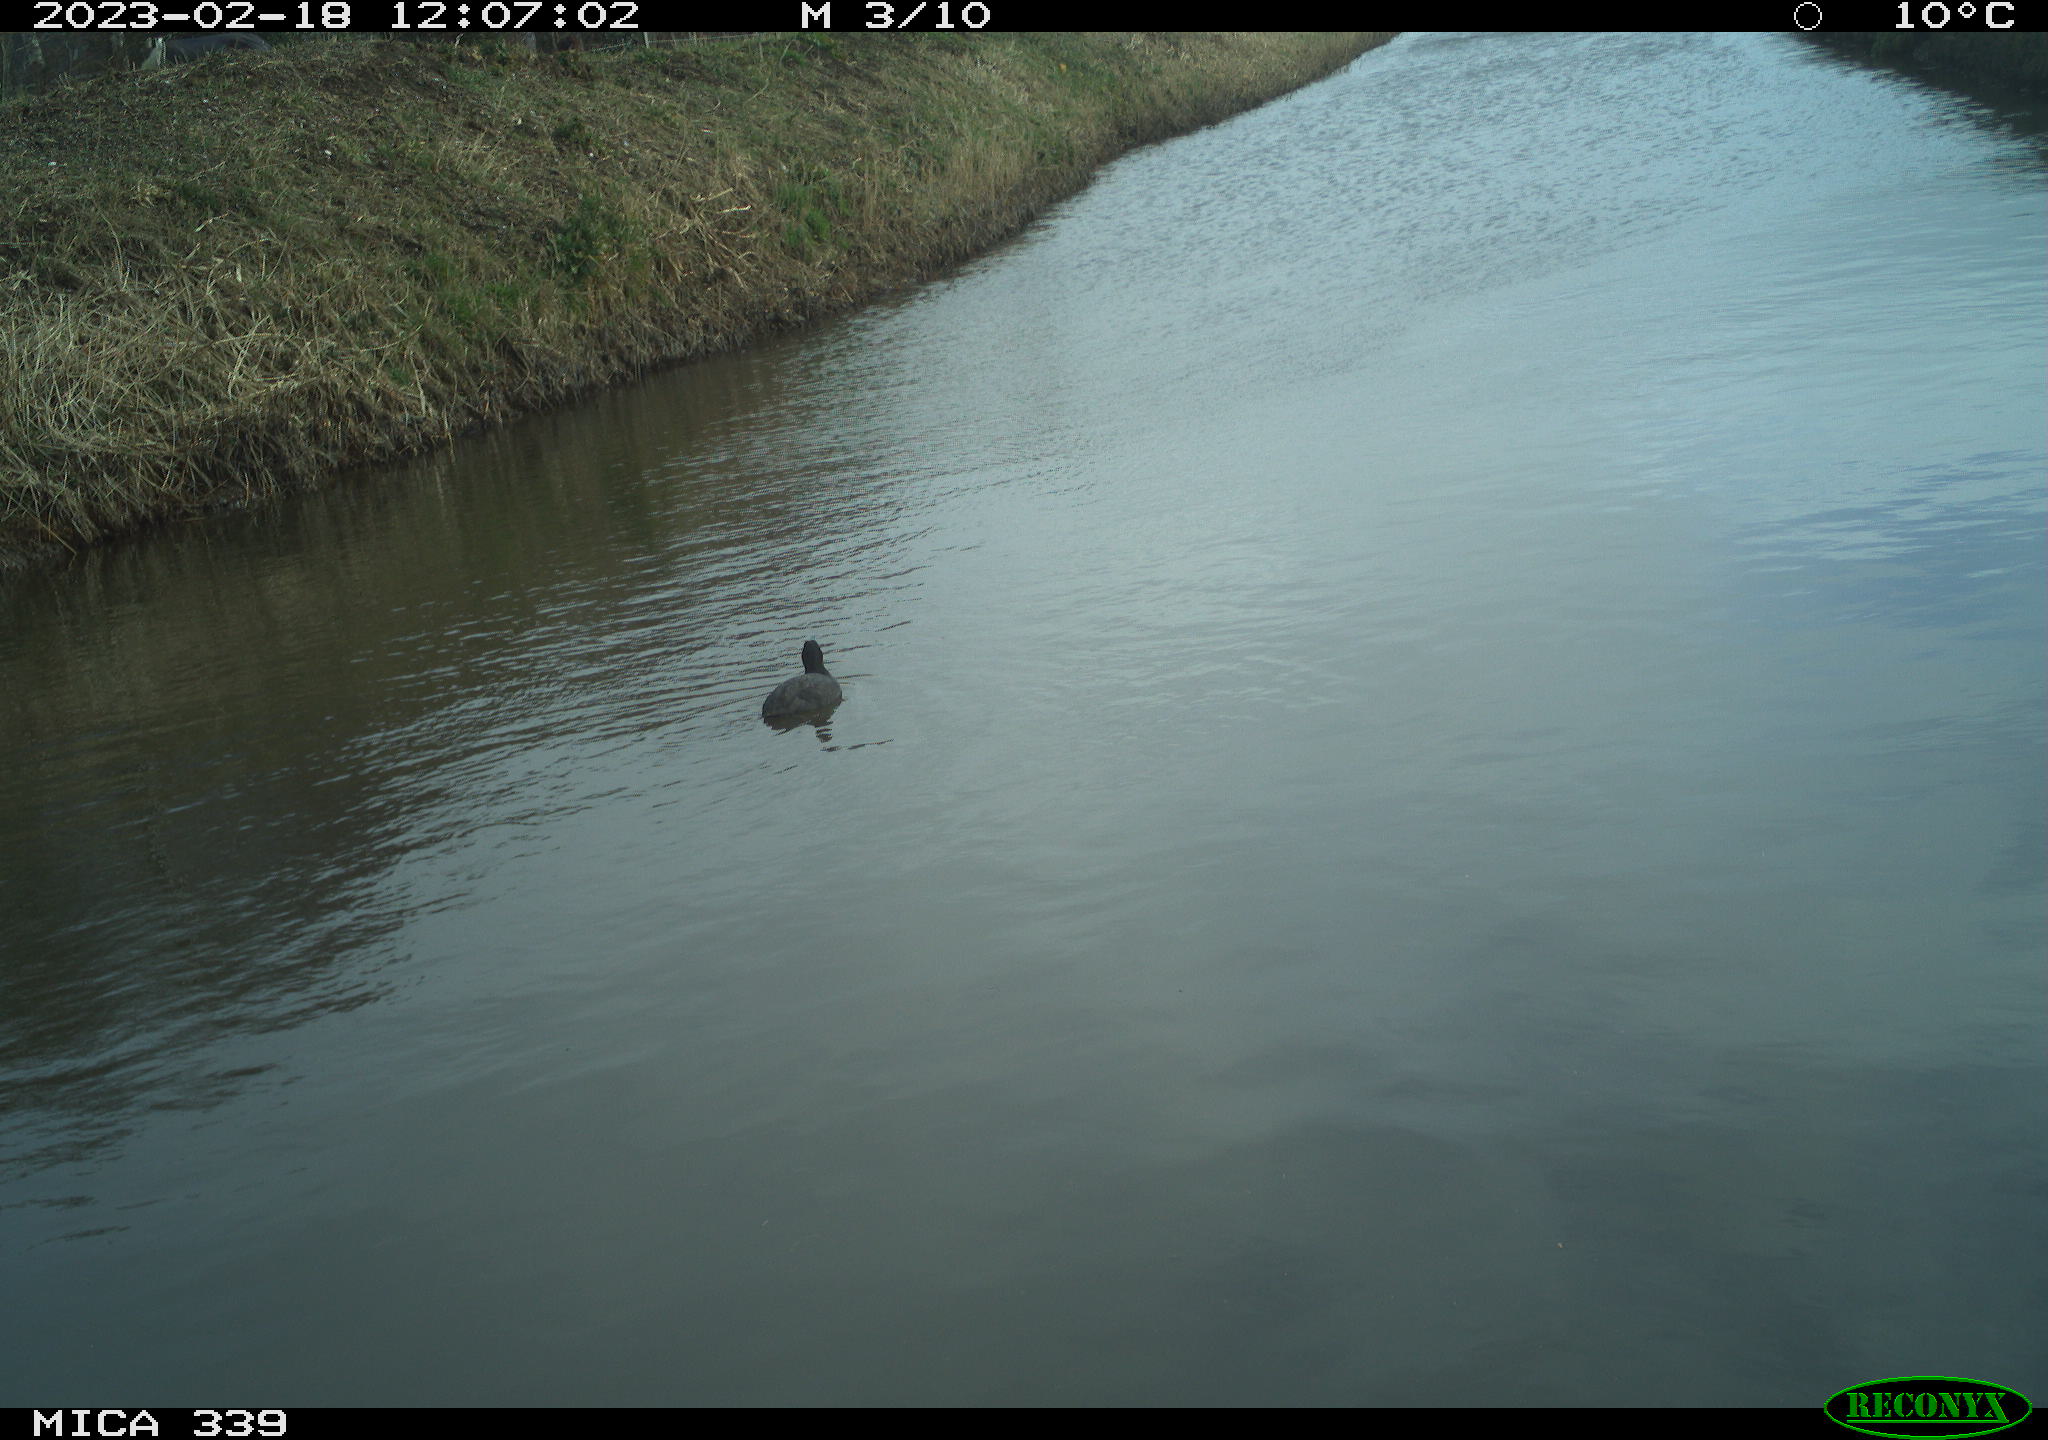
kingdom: Animalia
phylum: Chordata
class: Aves
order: Gruiformes
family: Rallidae
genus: Fulica
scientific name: Fulica atra
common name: Eurasian coot
